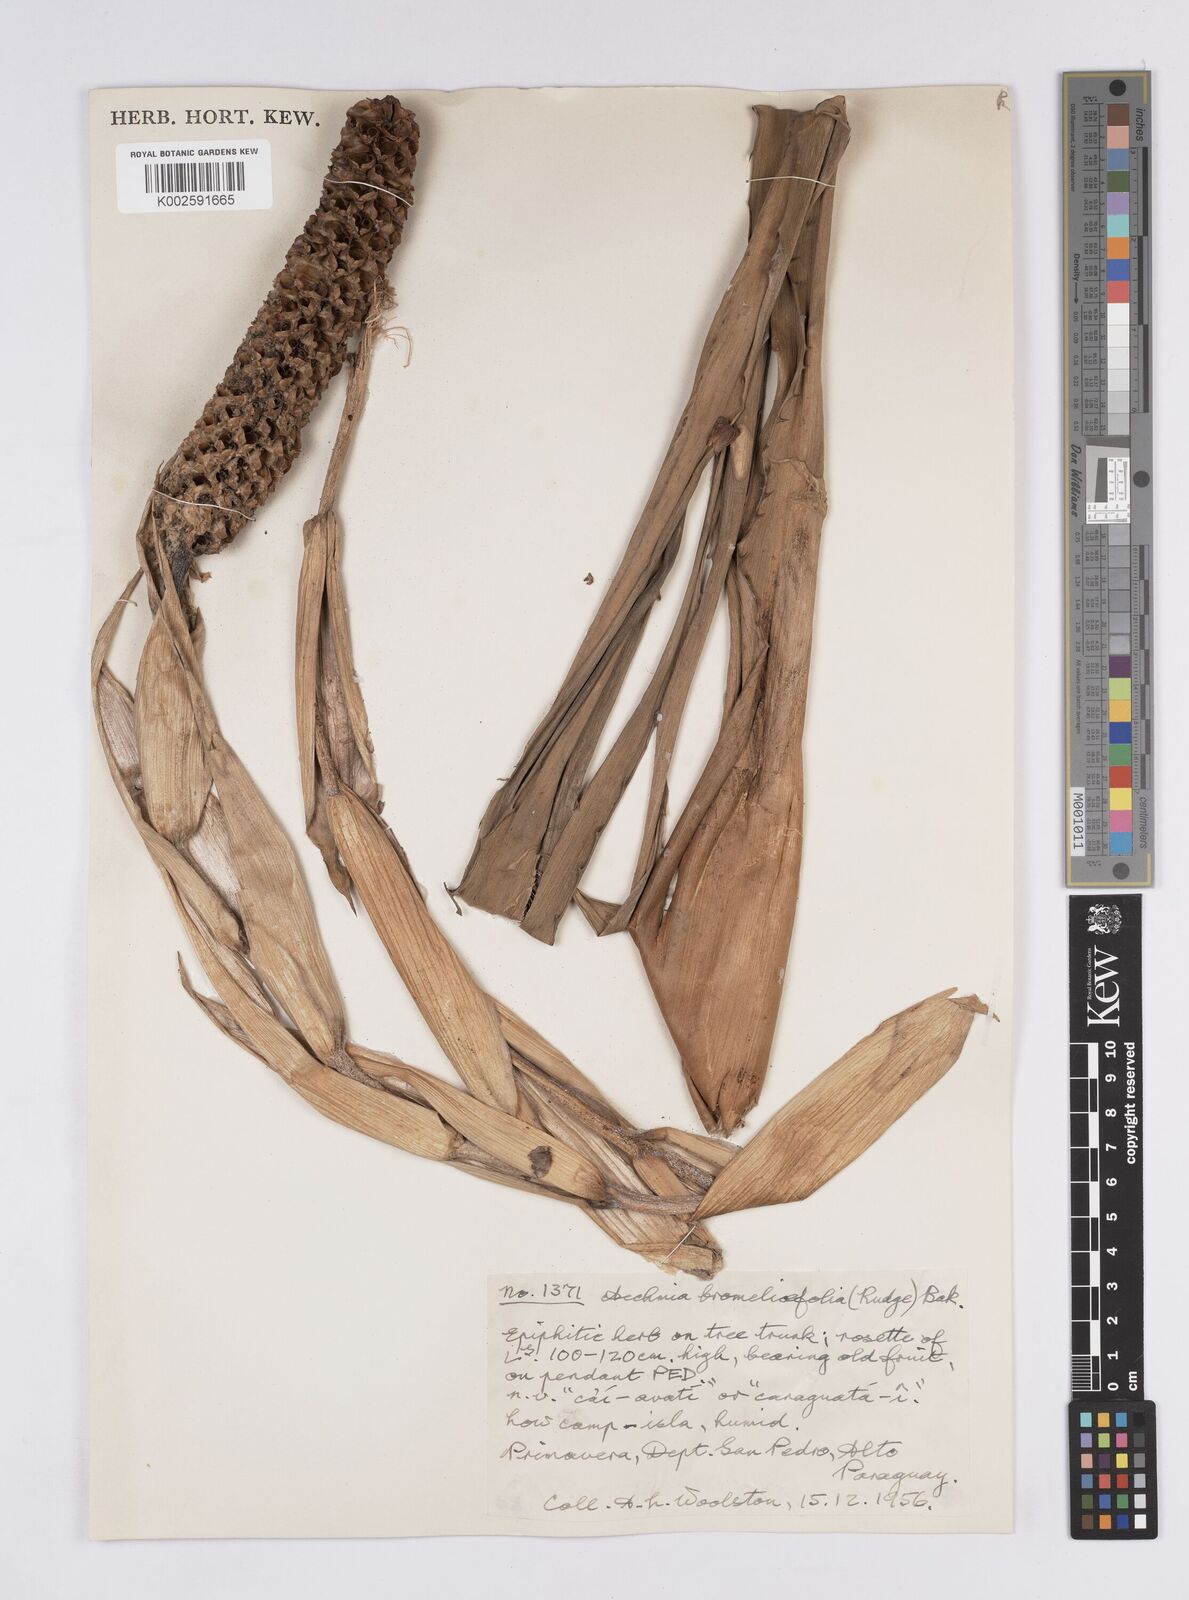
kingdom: Plantae
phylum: Tracheophyta
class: Liliopsida
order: Poales
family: Bromeliaceae
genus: Aechmea
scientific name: Aechmea bromeliifolia
